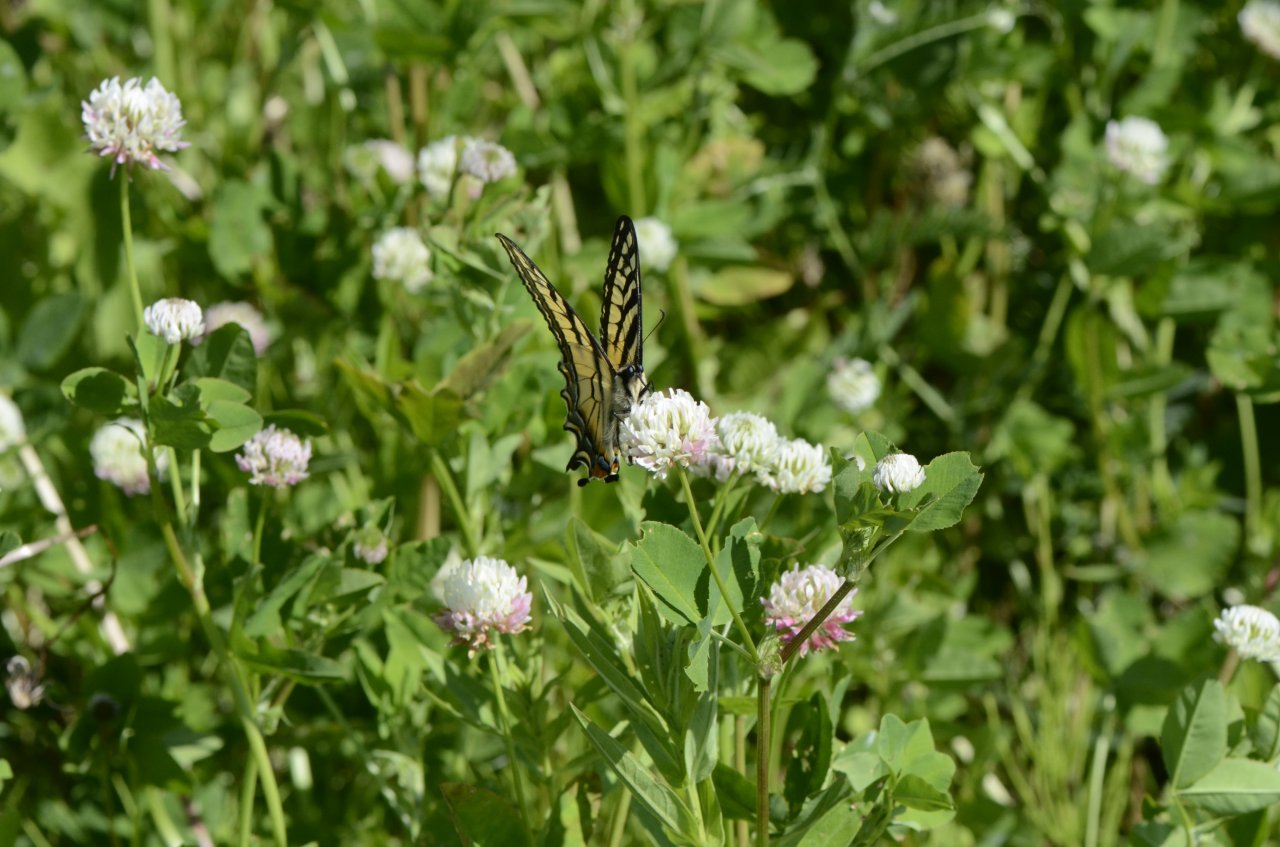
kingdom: Animalia
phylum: Arthropoda
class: Insecta
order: Lepidoptera
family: Papilionidae
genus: Pterourus
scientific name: Pterourus canadensis
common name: Canadian Tiger Swallowtail
